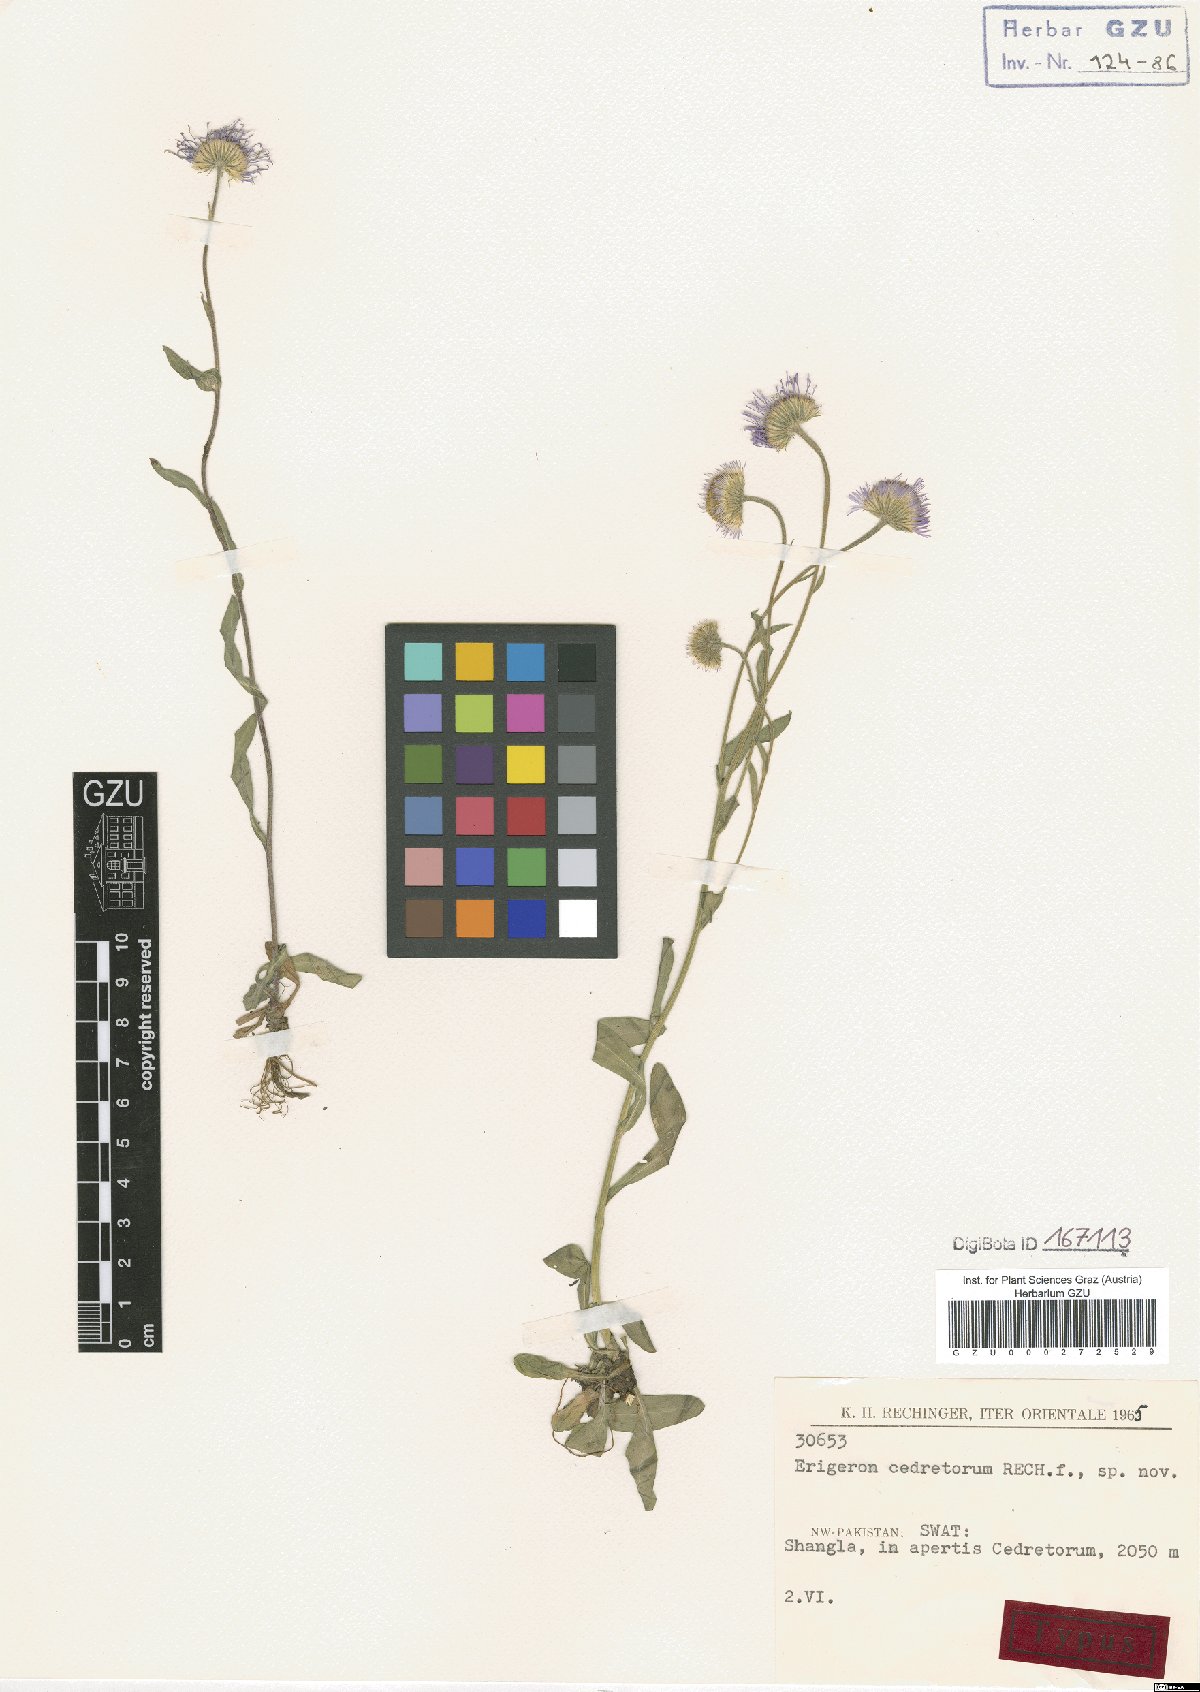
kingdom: Plantae
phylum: Tracheophyta
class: Magnoliopsida
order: Asterales
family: Asteraceae
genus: Erigeron
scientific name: Erigeron cedretorum
